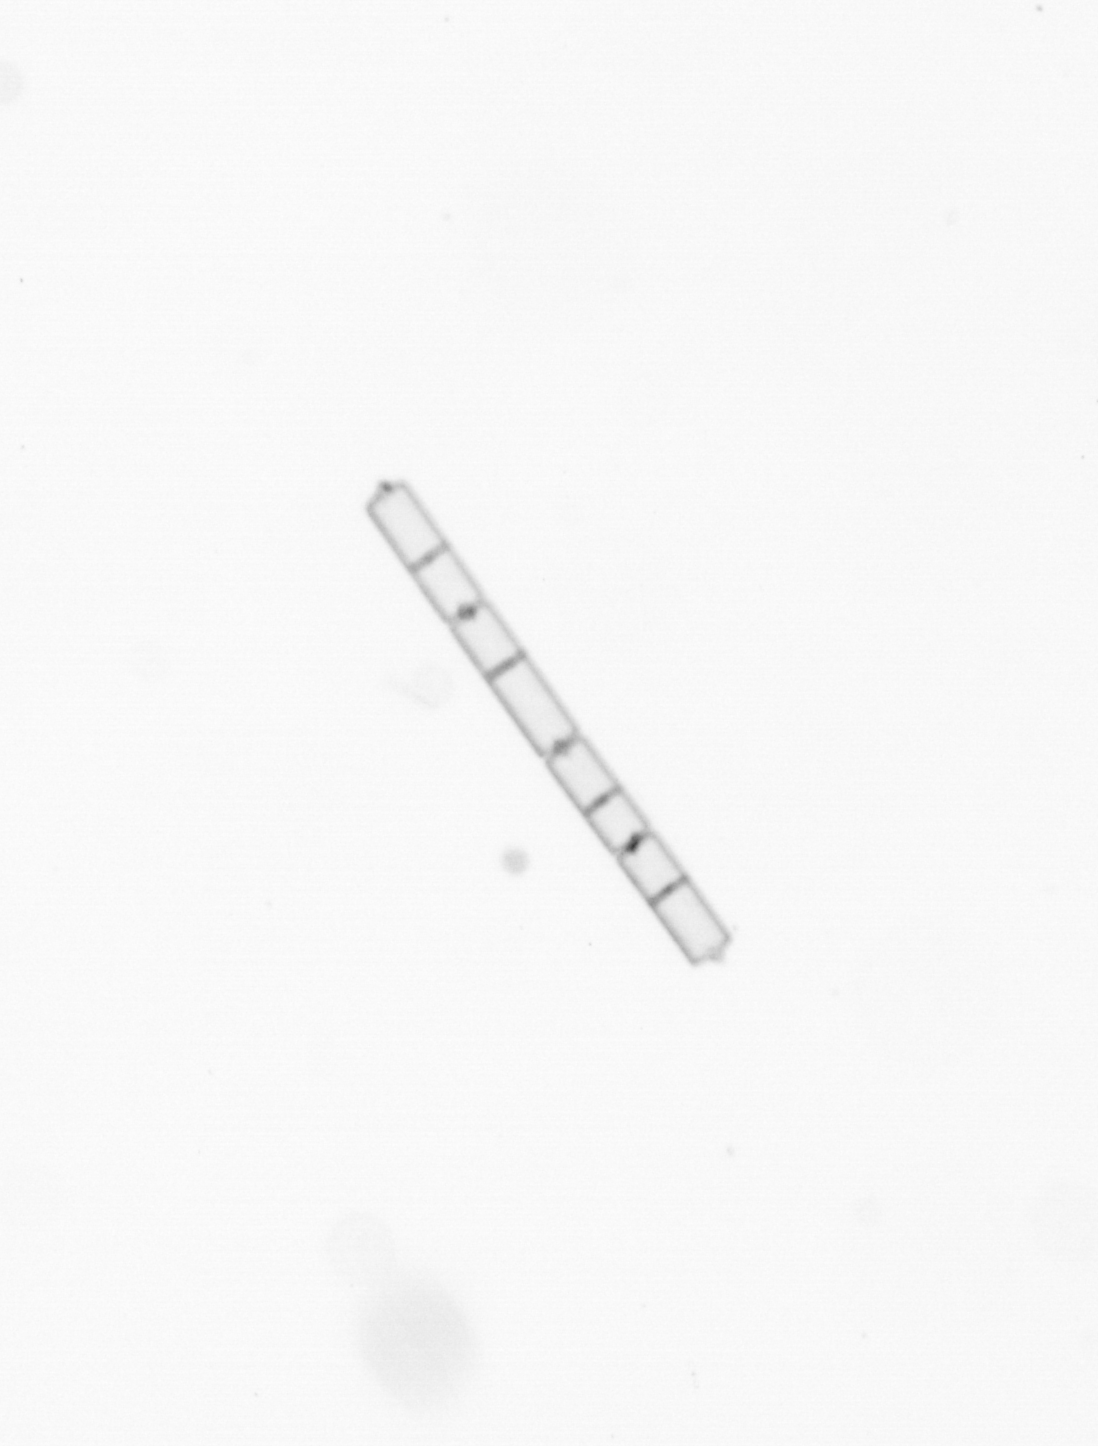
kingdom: Chromista
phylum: Ochrophyta
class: Bacillariophyceae
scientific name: Bacillariophyceae
